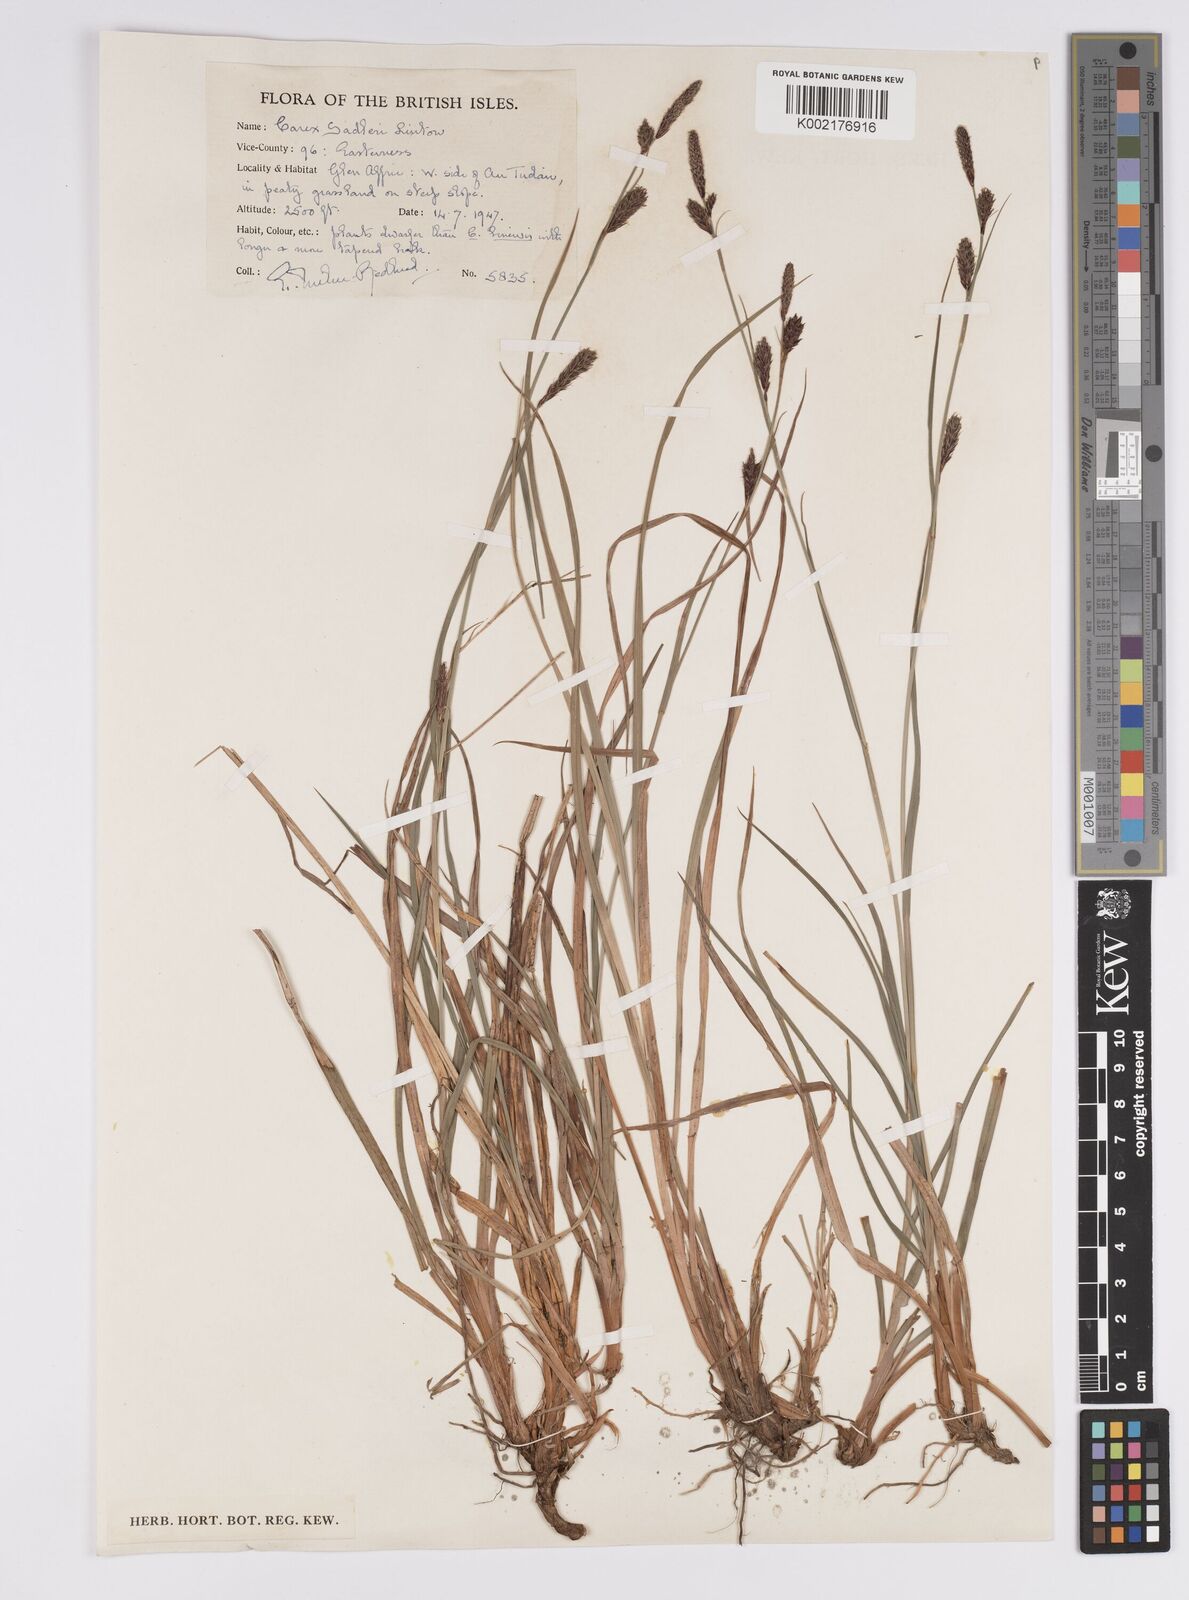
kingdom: Plantae
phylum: Tracheophyta
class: Liliopsida
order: Poales
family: Cyperaceae
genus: Carex
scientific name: Carex frigida
